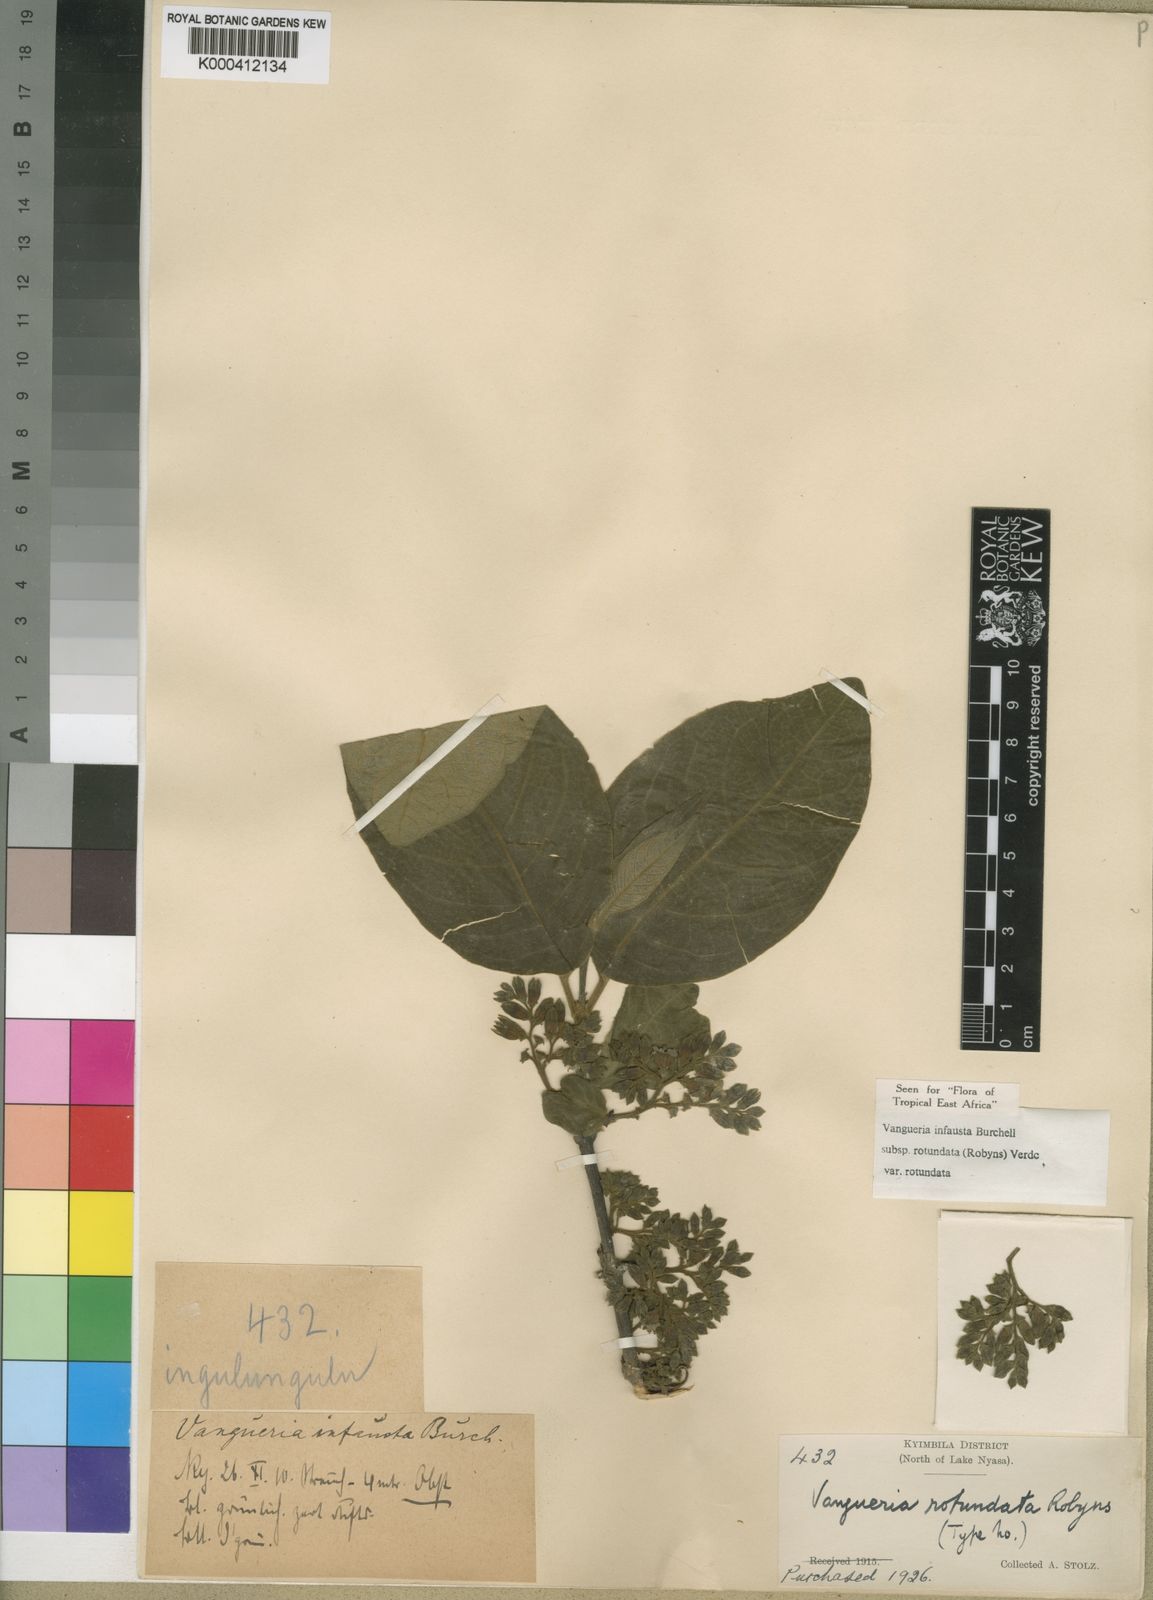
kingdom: Plantae
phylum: Tracheophyta
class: Magnoliopsida
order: Gentianales
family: Rubiaceae
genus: Vangueria
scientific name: Vangueria infausta
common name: Medlar
